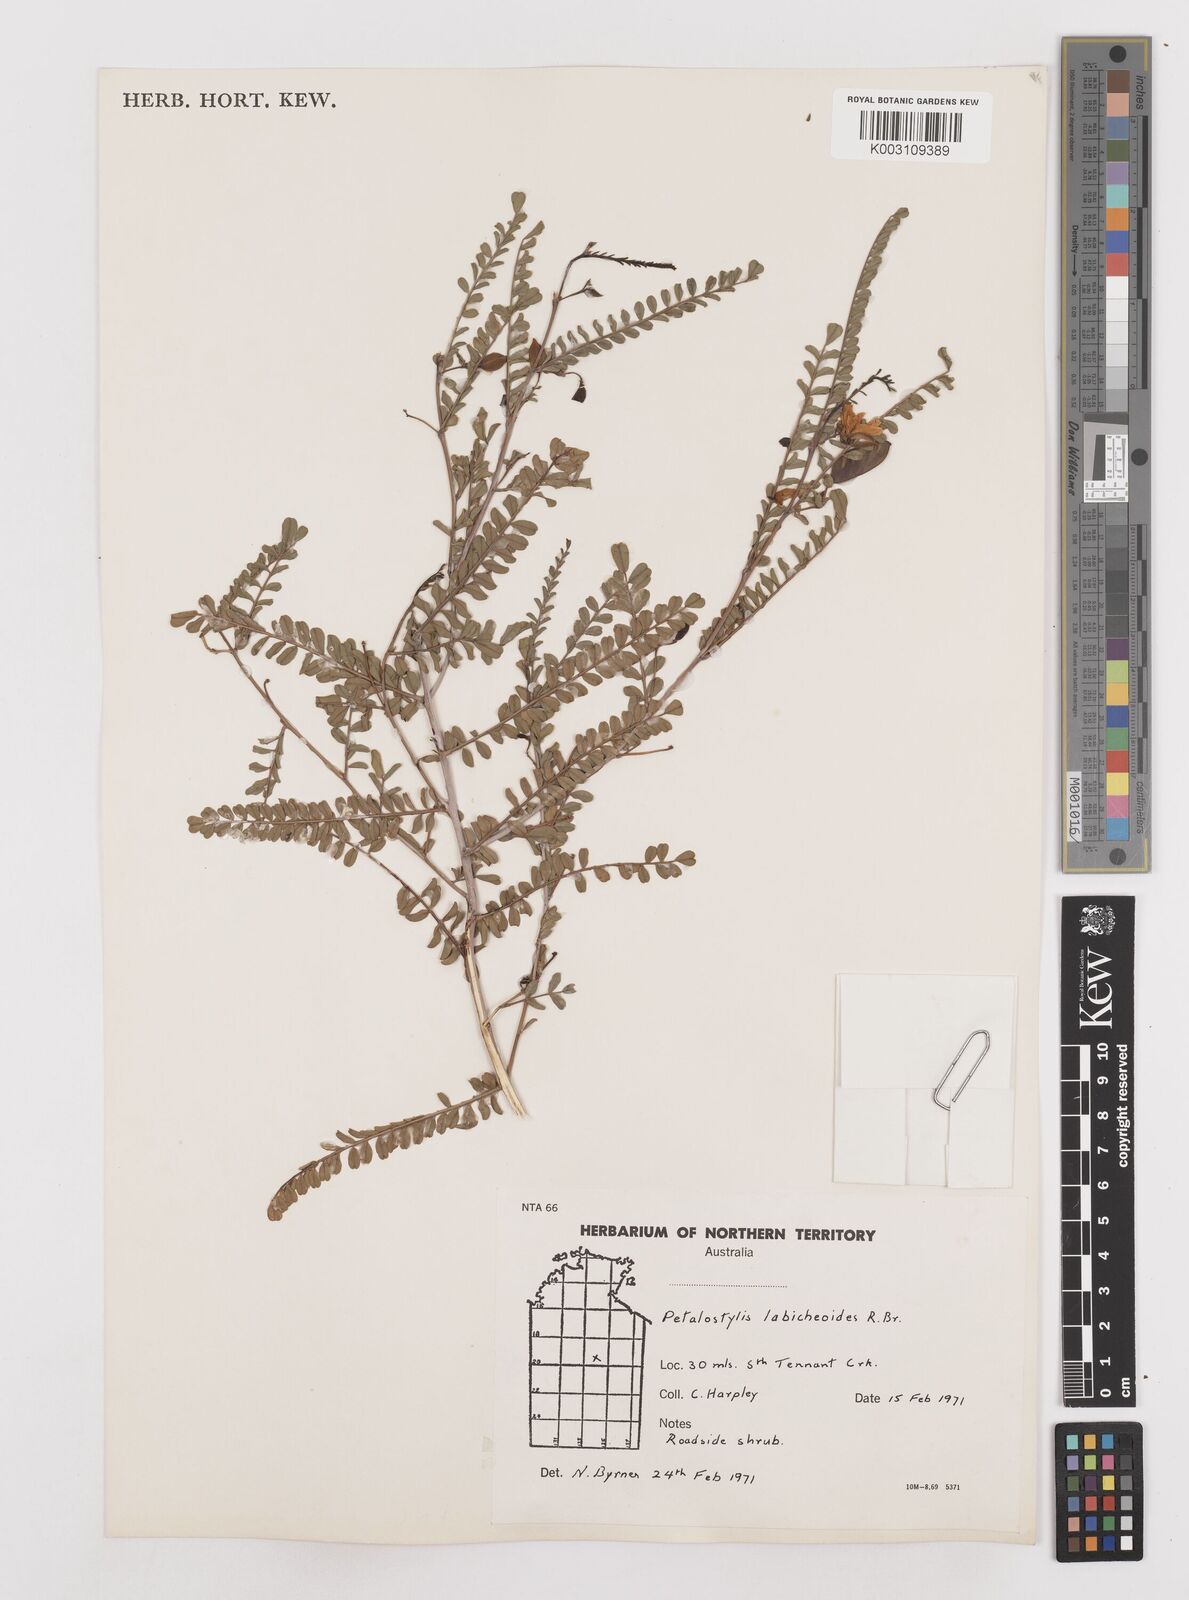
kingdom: Plantae
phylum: Tracheophyta
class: Magnoliopsida
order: Fabales
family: Fabaceae
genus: Petalostylis
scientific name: Petalostylis labicheoides
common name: Butterfly bush
